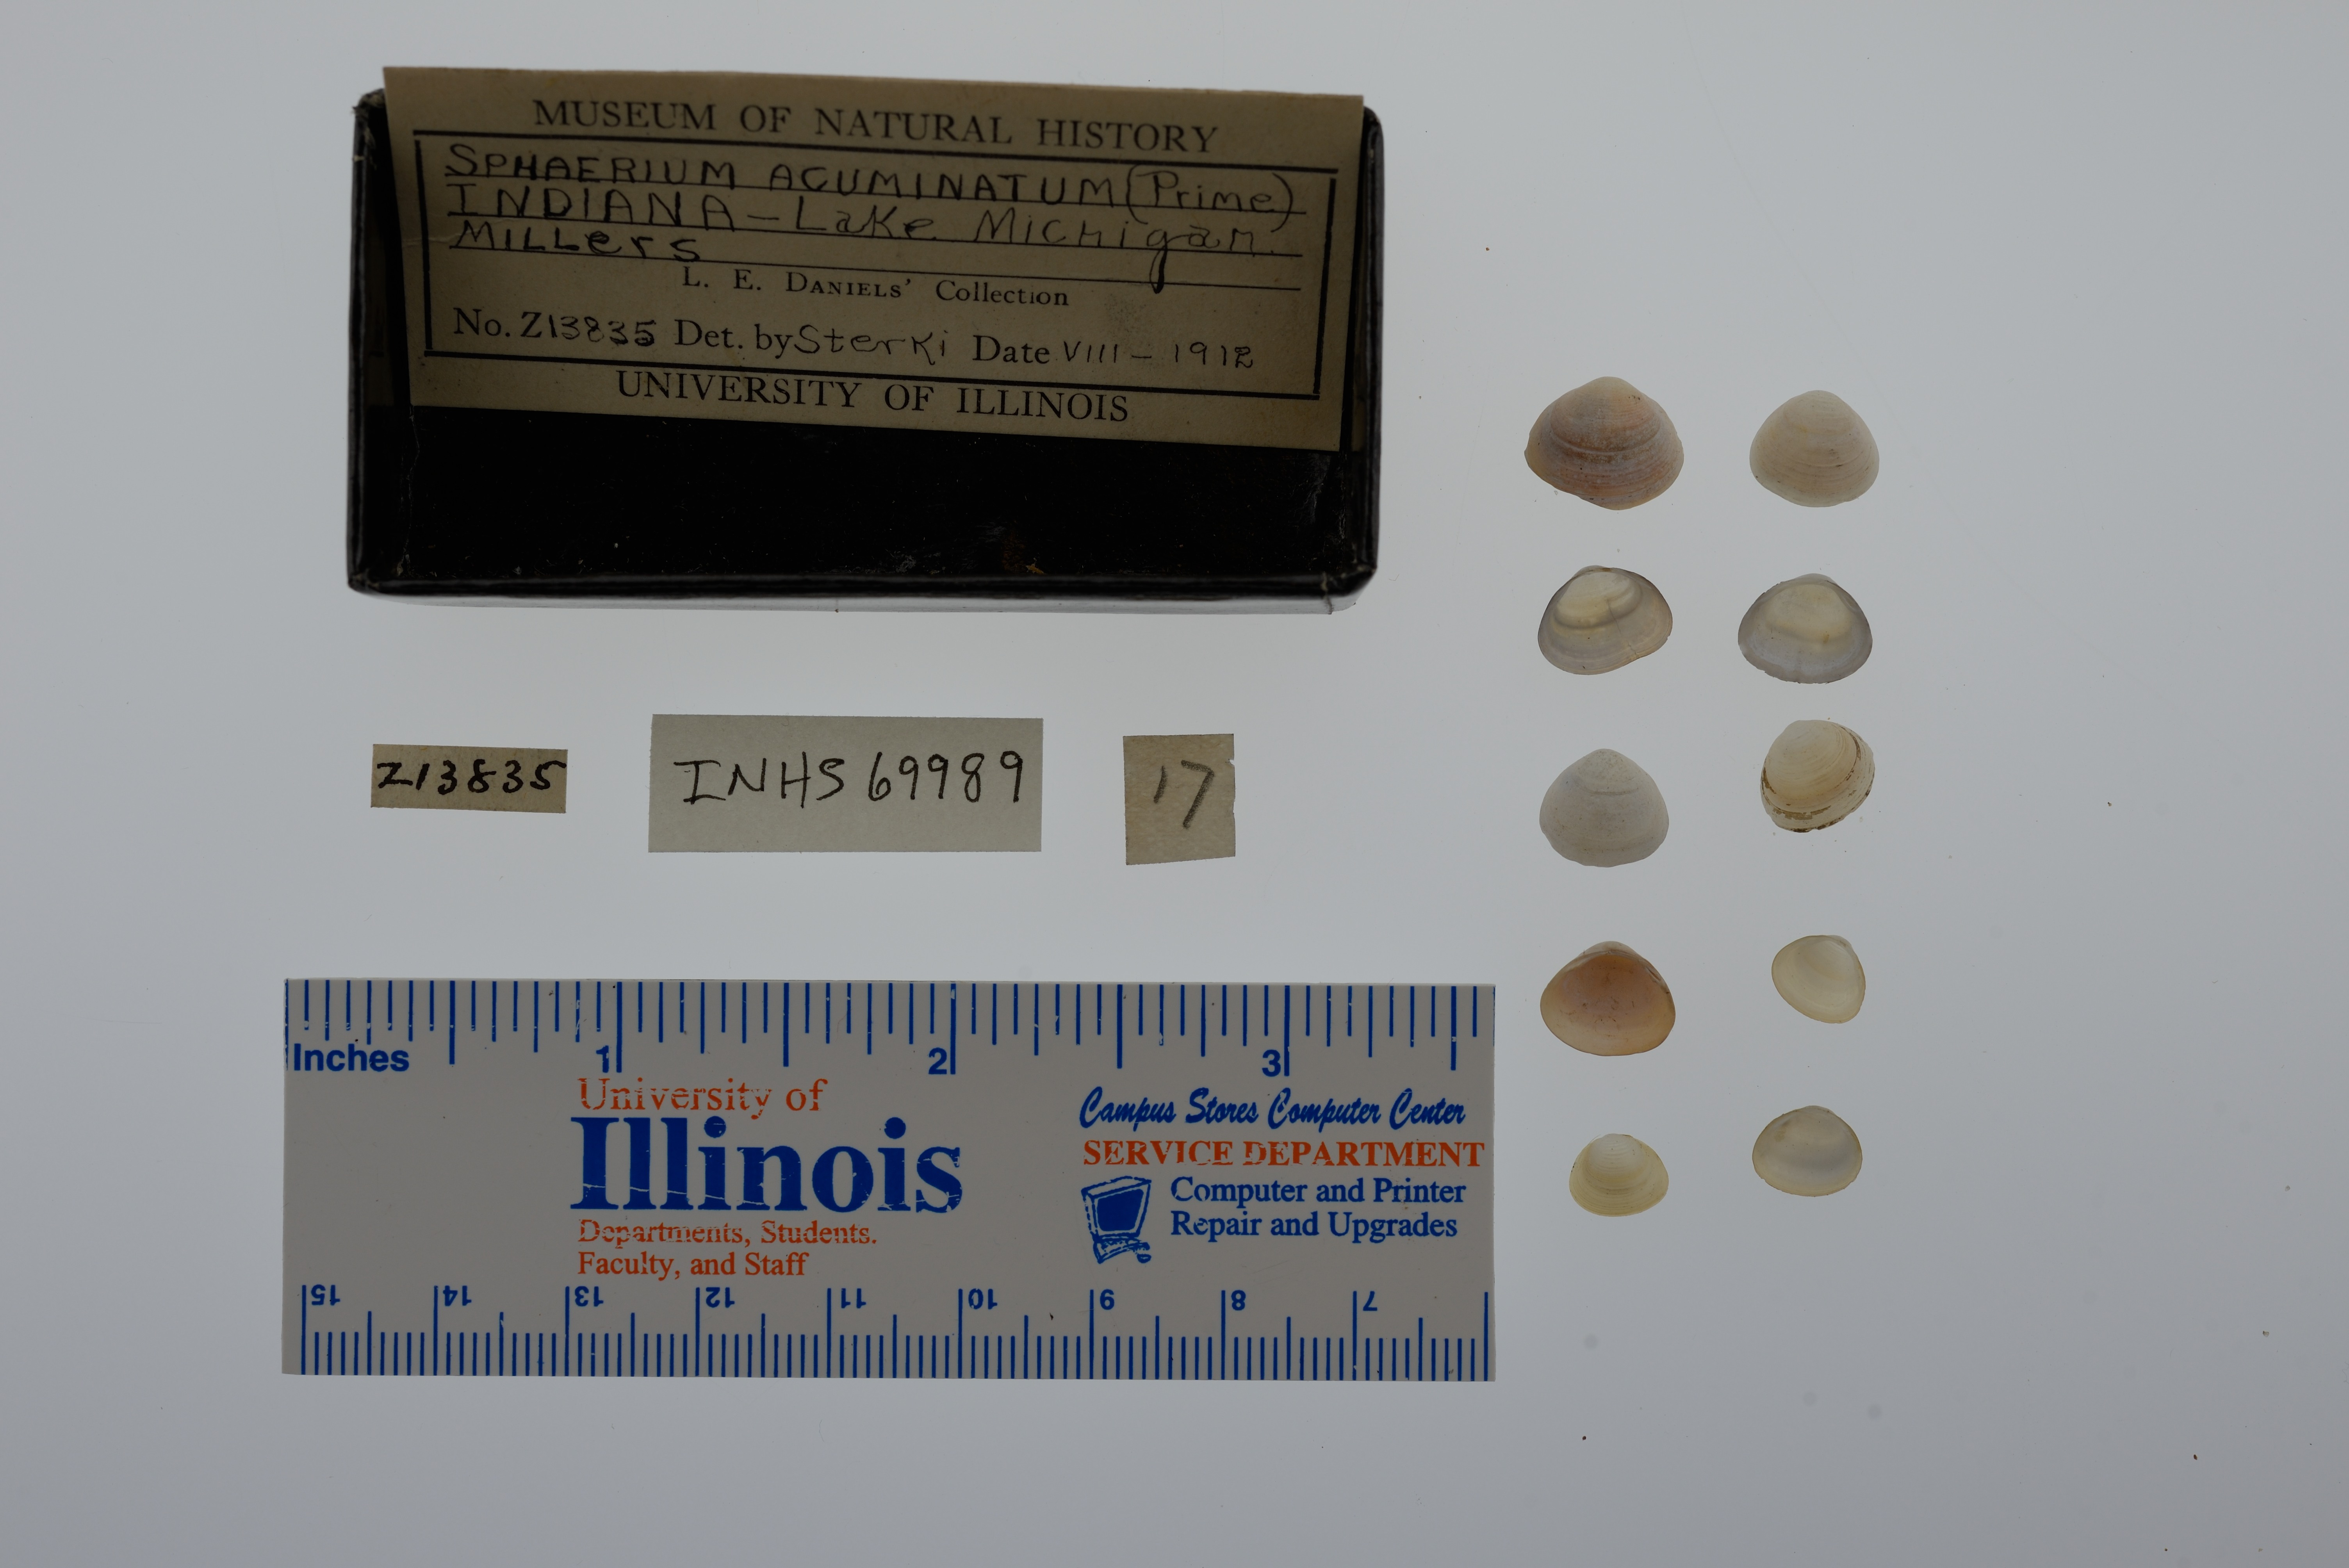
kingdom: Animalia
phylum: Mollusca
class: Bivalvia
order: Sphaeriida
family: Sphaeriidae
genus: Sphaerium
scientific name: Sphaerium striatinum
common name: Striated fingernailclam
